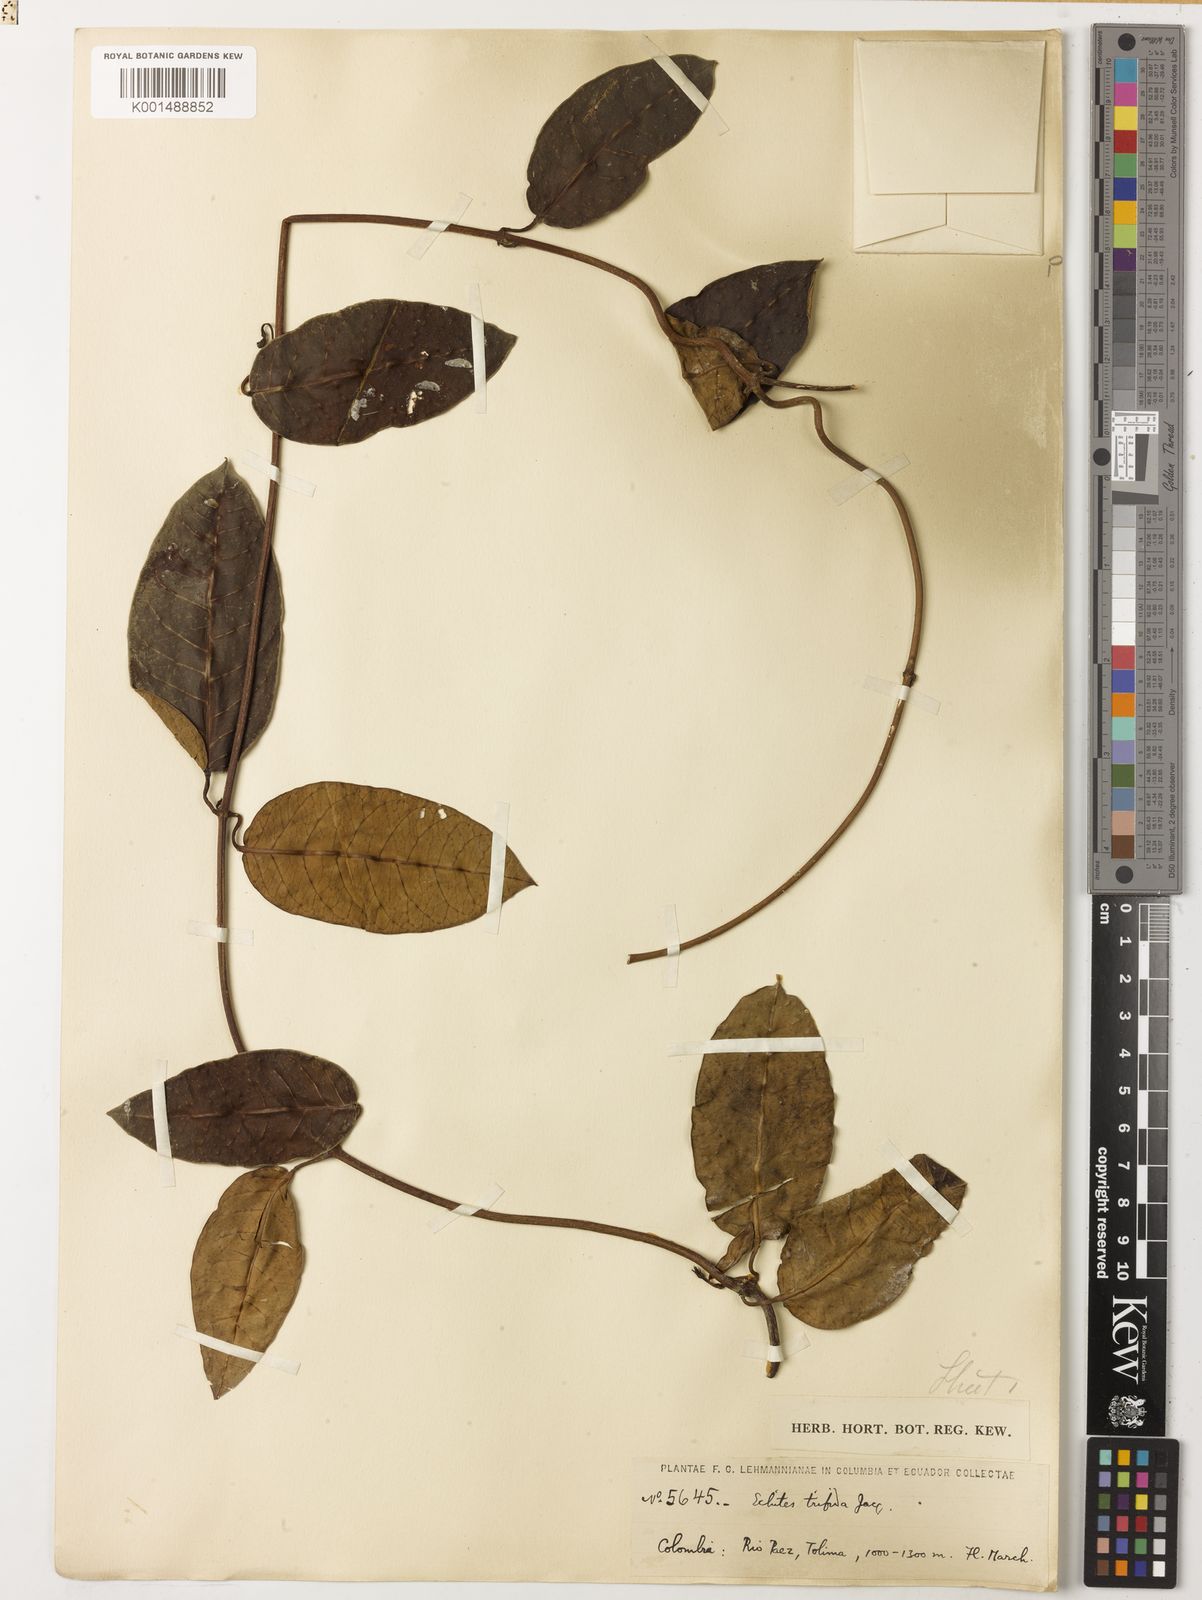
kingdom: Plantae
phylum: Tracheophyta
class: Magnoliopsida
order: Gentianales
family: Apocynaceae
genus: Mesechites
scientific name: Mesechites trifidus
